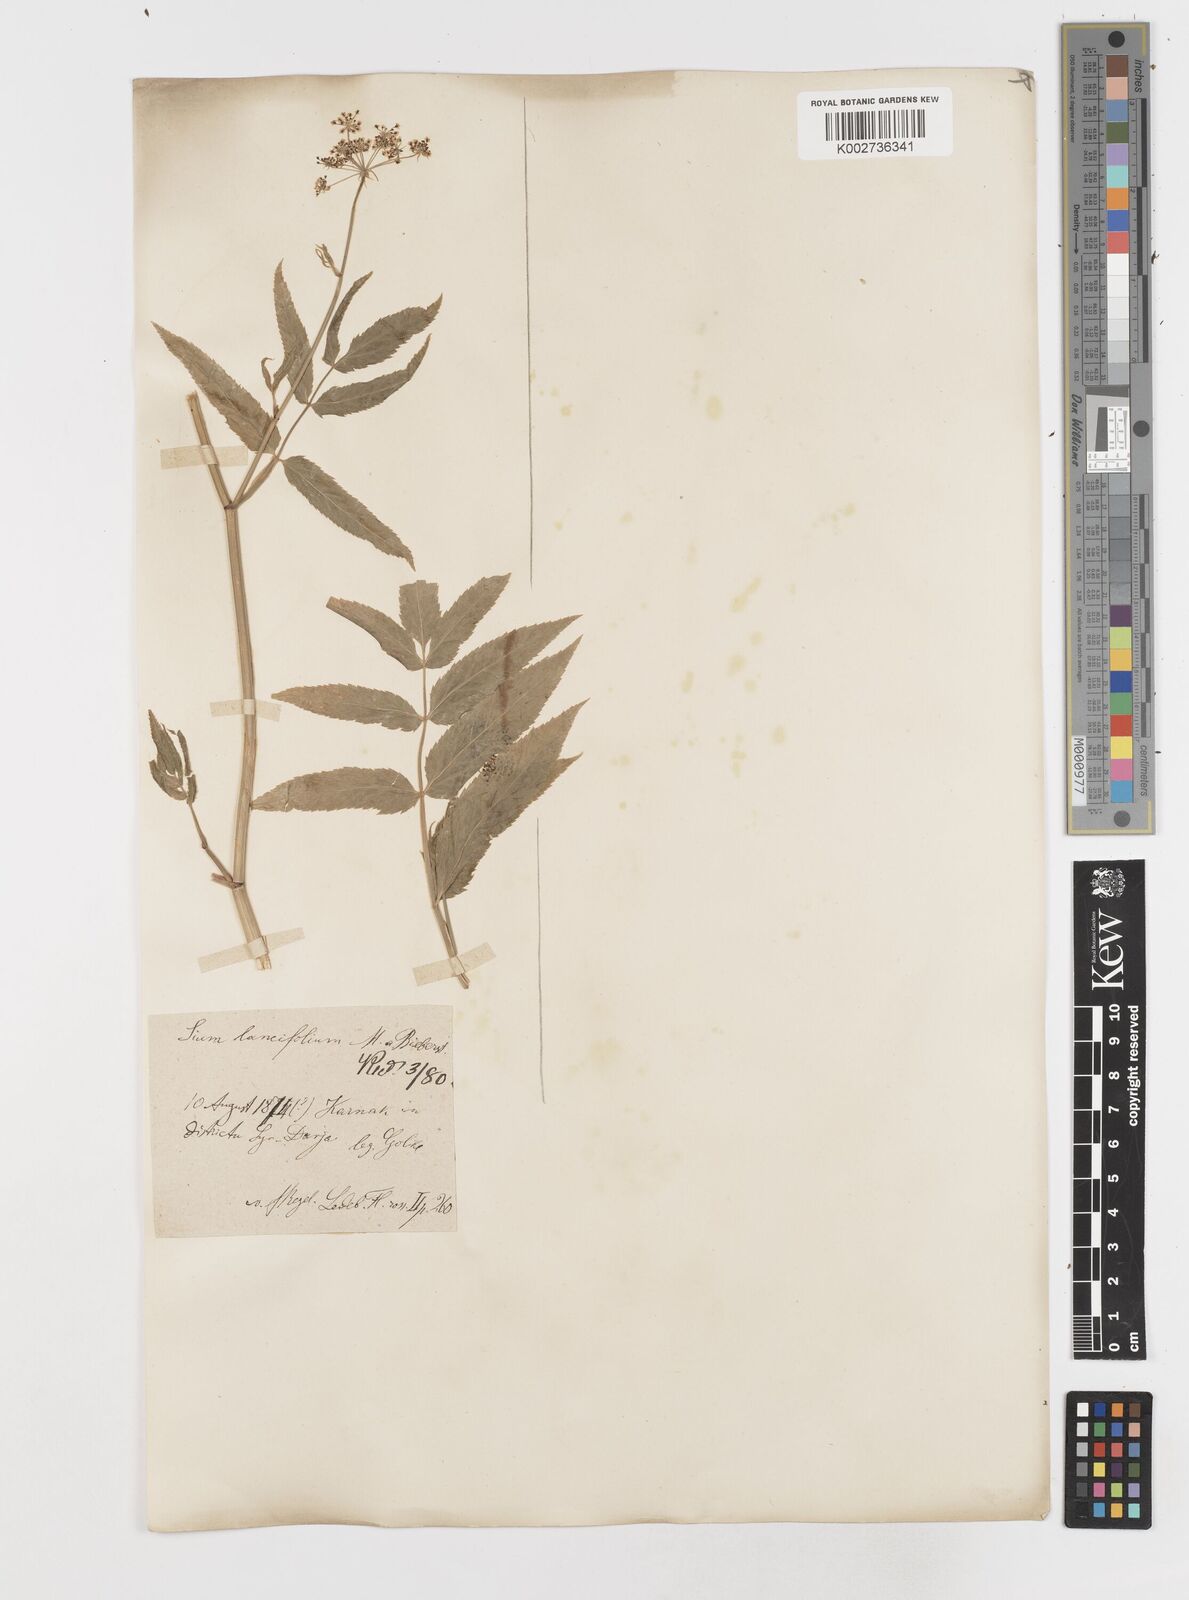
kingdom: Plantae
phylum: Tracheophyta
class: Magnoliopsida
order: Apiales
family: Apiaceae
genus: Sium
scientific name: Sium sisarum
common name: Skirret
